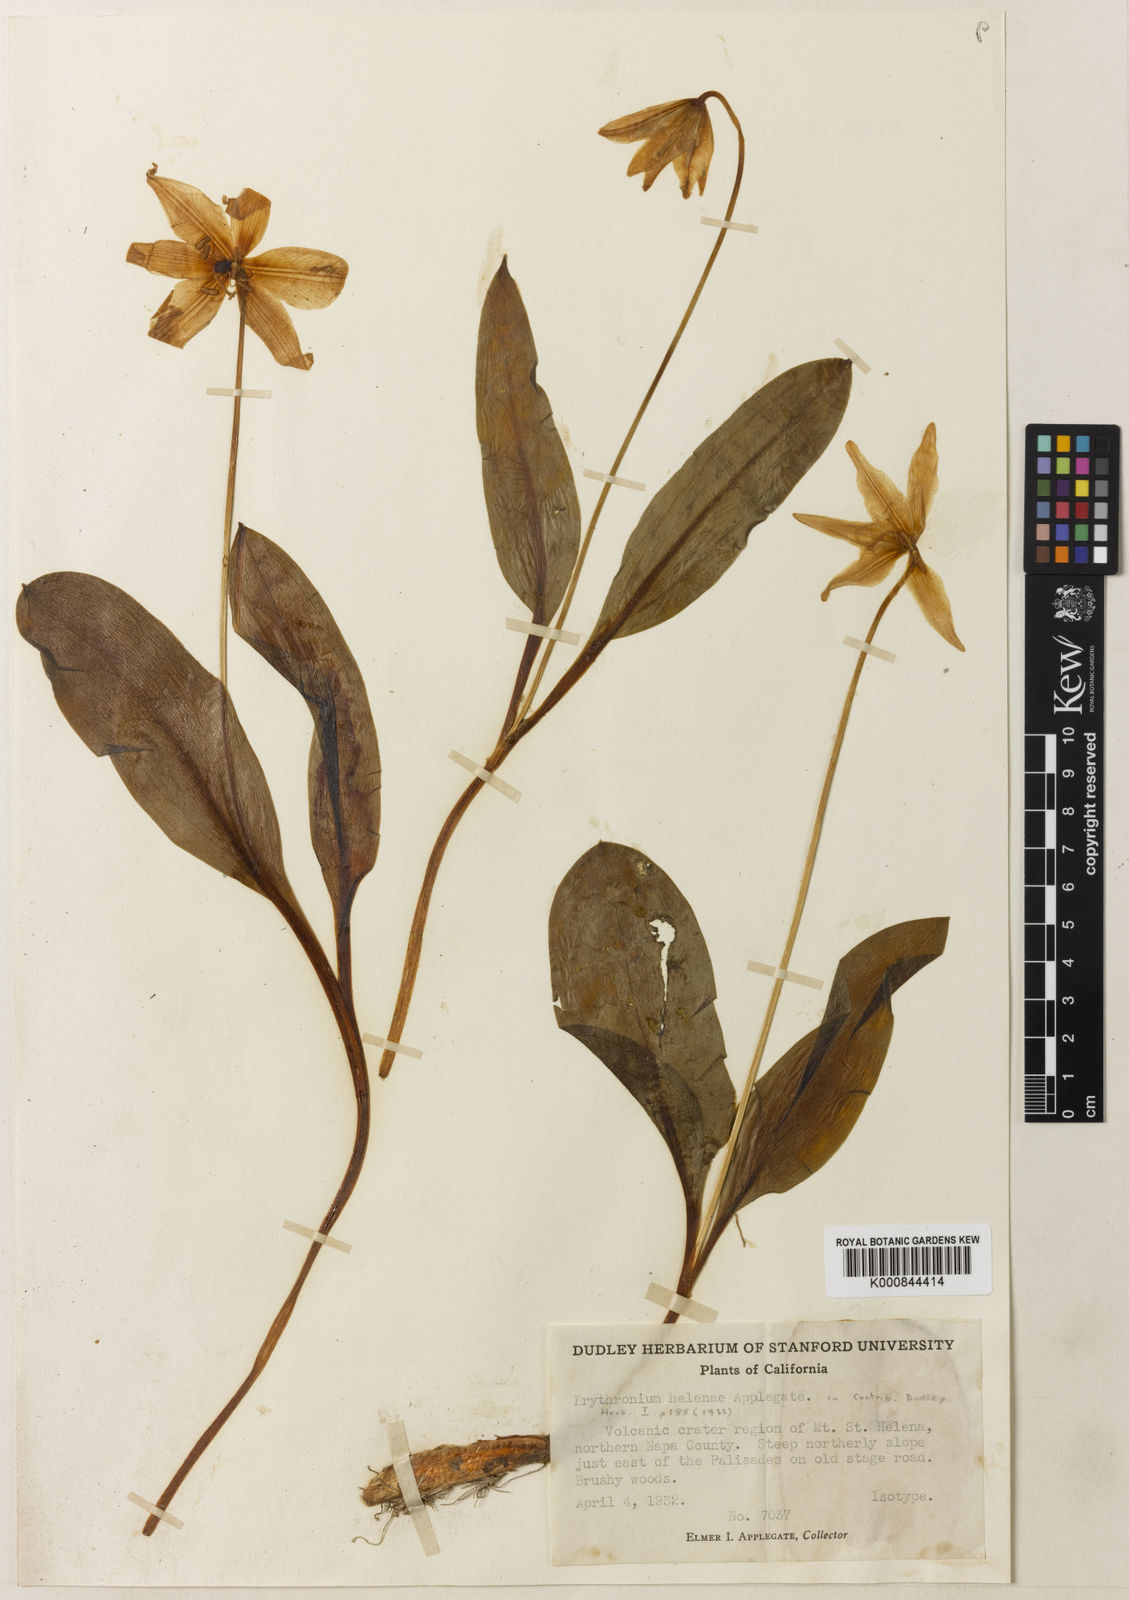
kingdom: Plantae
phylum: Tracheophyta
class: Liliopsida
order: Liliales
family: Liliaceae
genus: Erythronium
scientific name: Erythronium helenae
